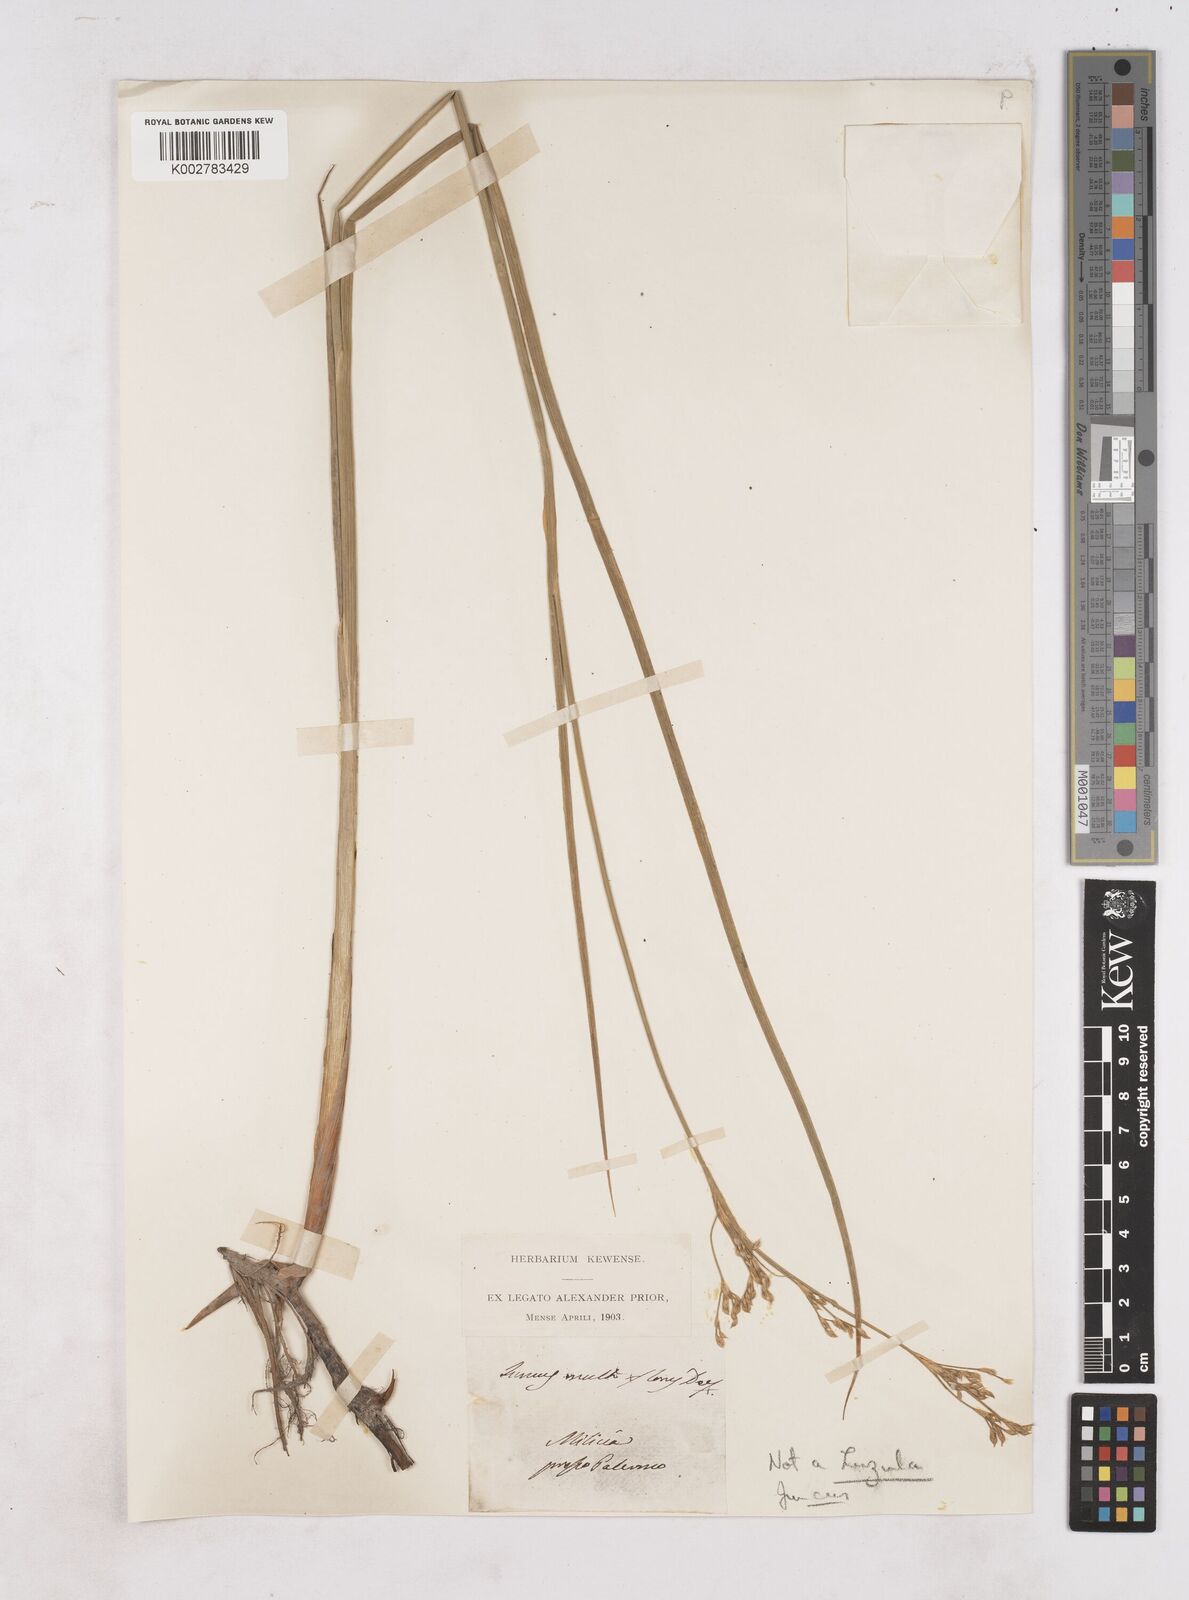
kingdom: Plantae
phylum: Tracheophyta
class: Liliopsida
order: Poales
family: Juncaceae
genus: Luzula
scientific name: Luzula multiflora
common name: Heath wood-rush
